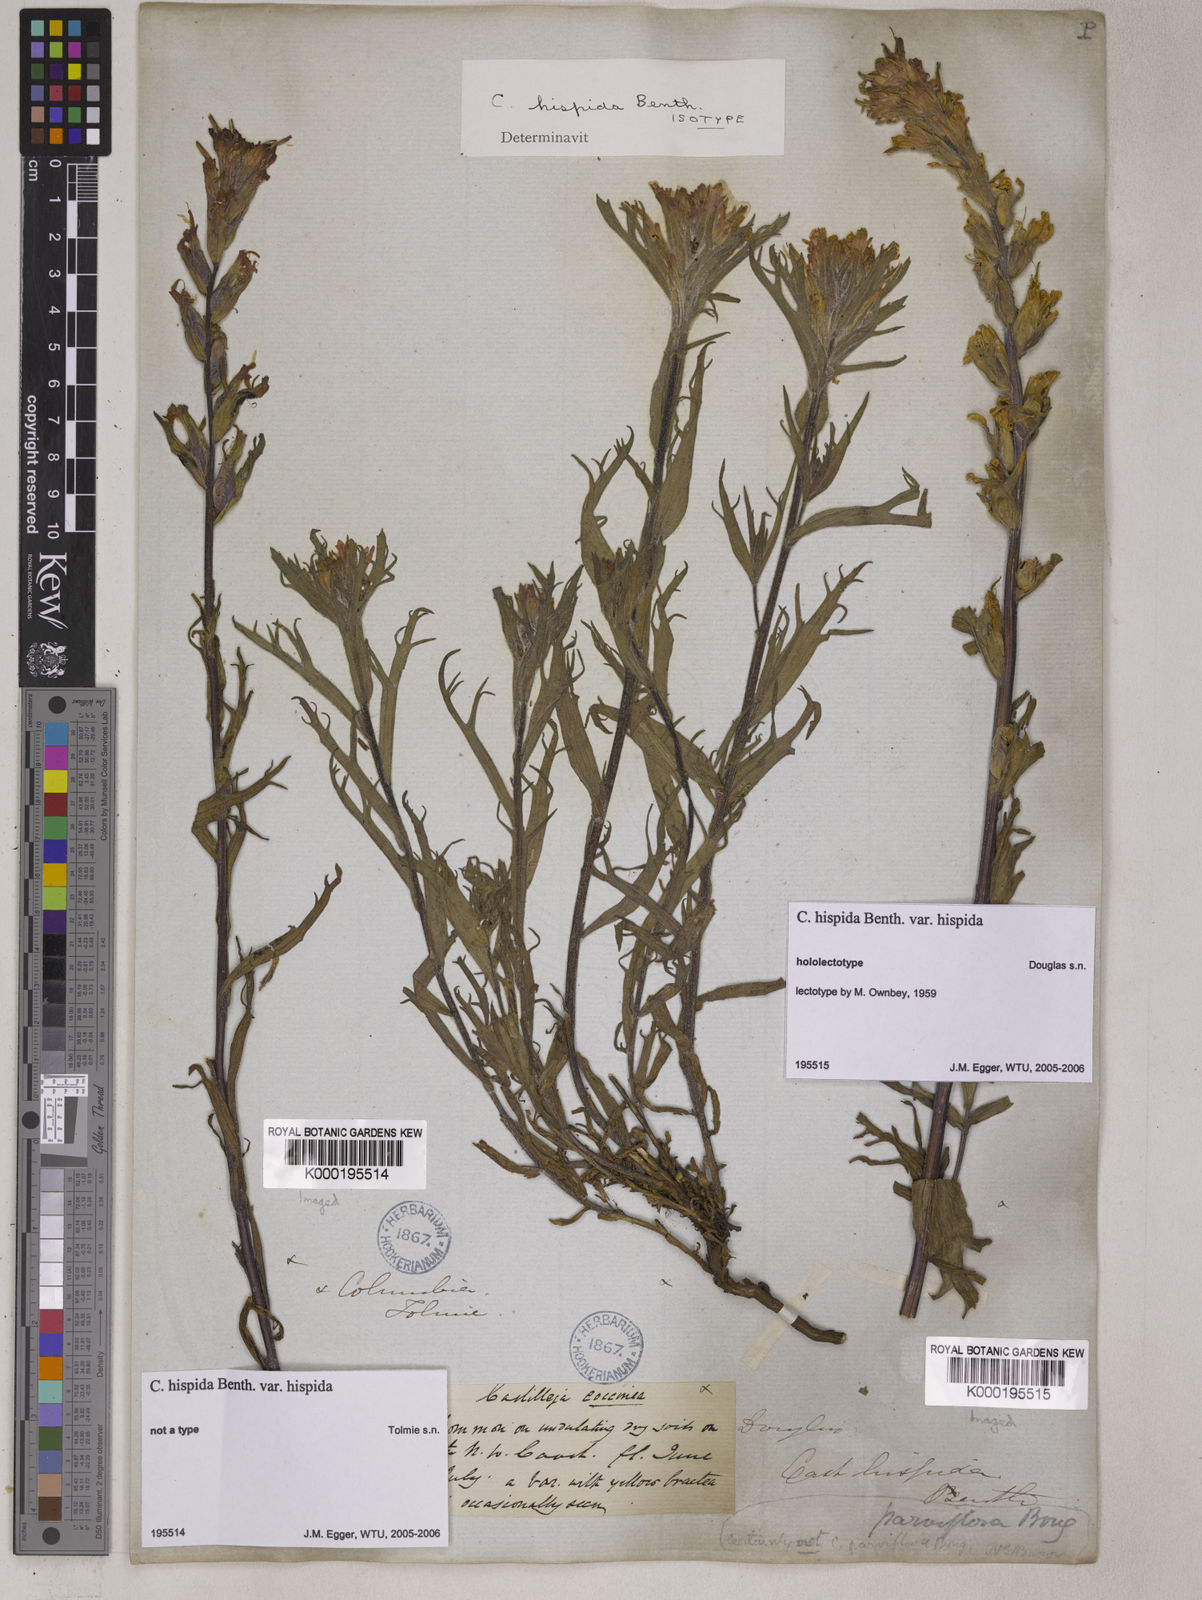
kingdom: Plantae
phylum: Tracheophyta
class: Magnoliopsida
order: Lamiales
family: Orobanchaceae
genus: Castilleja
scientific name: Castilleja hispida
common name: Bristly paintbrush
